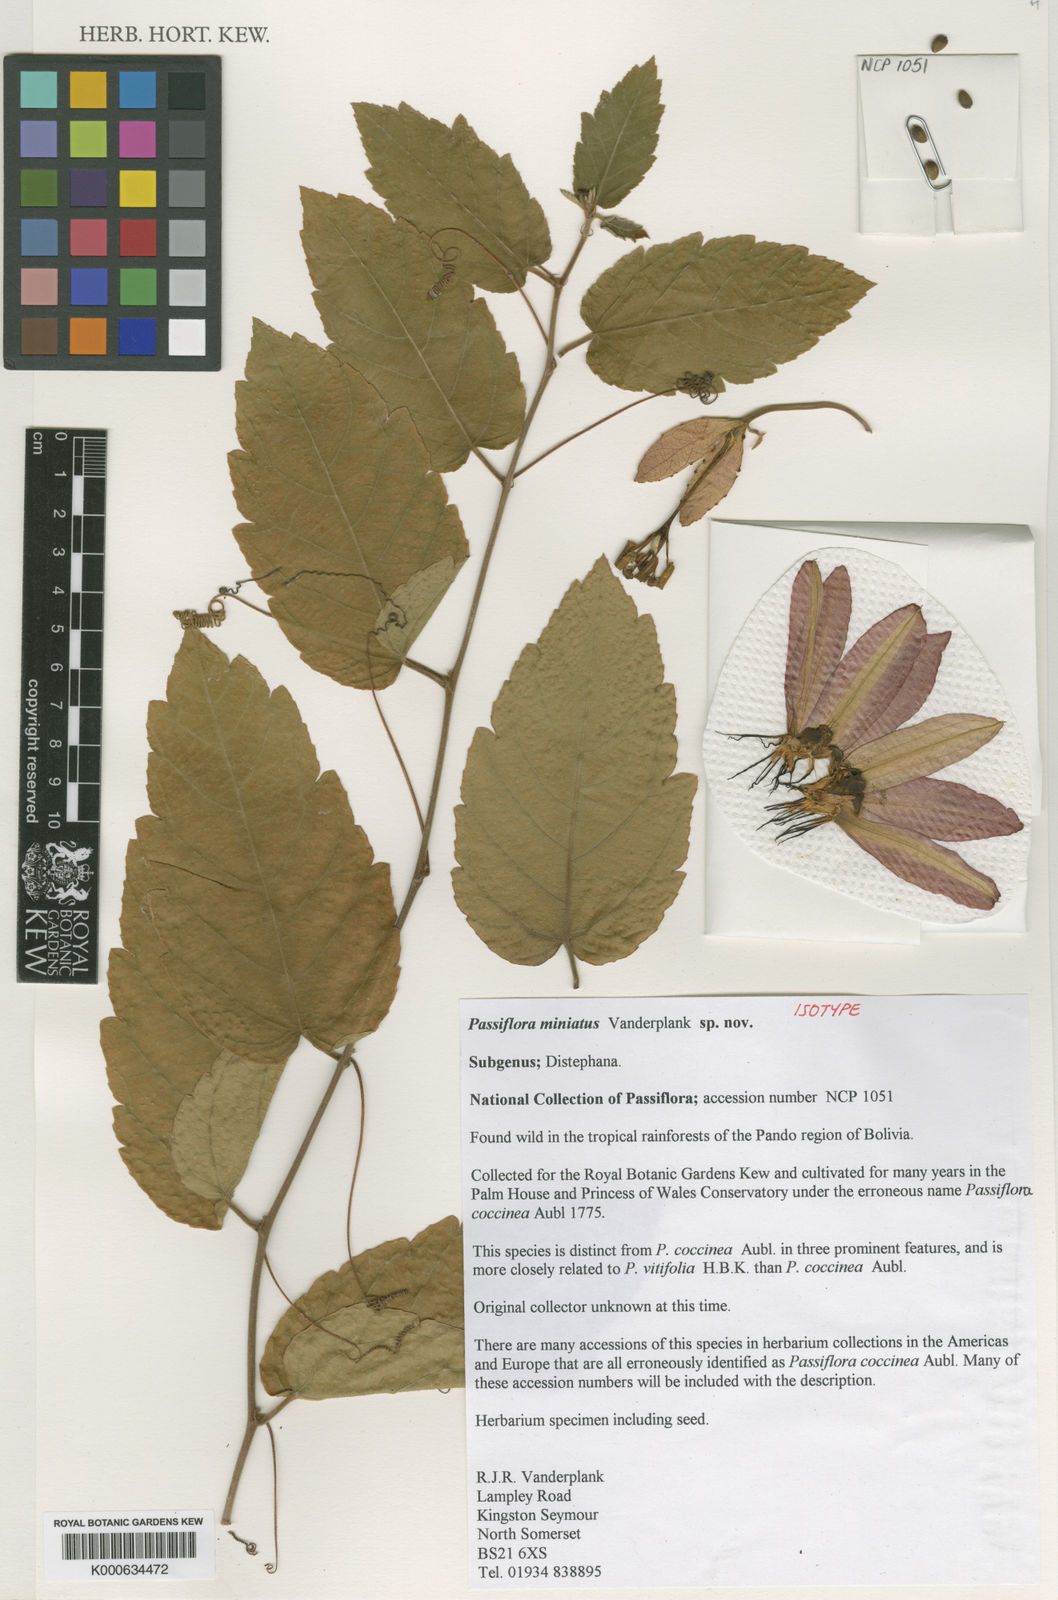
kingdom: Plantae
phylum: Tracheophyta
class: Magnoliopsida
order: Malpighiales
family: Passifloraceae
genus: Passiflora
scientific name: Passiflora miniata
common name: Red granadilla
